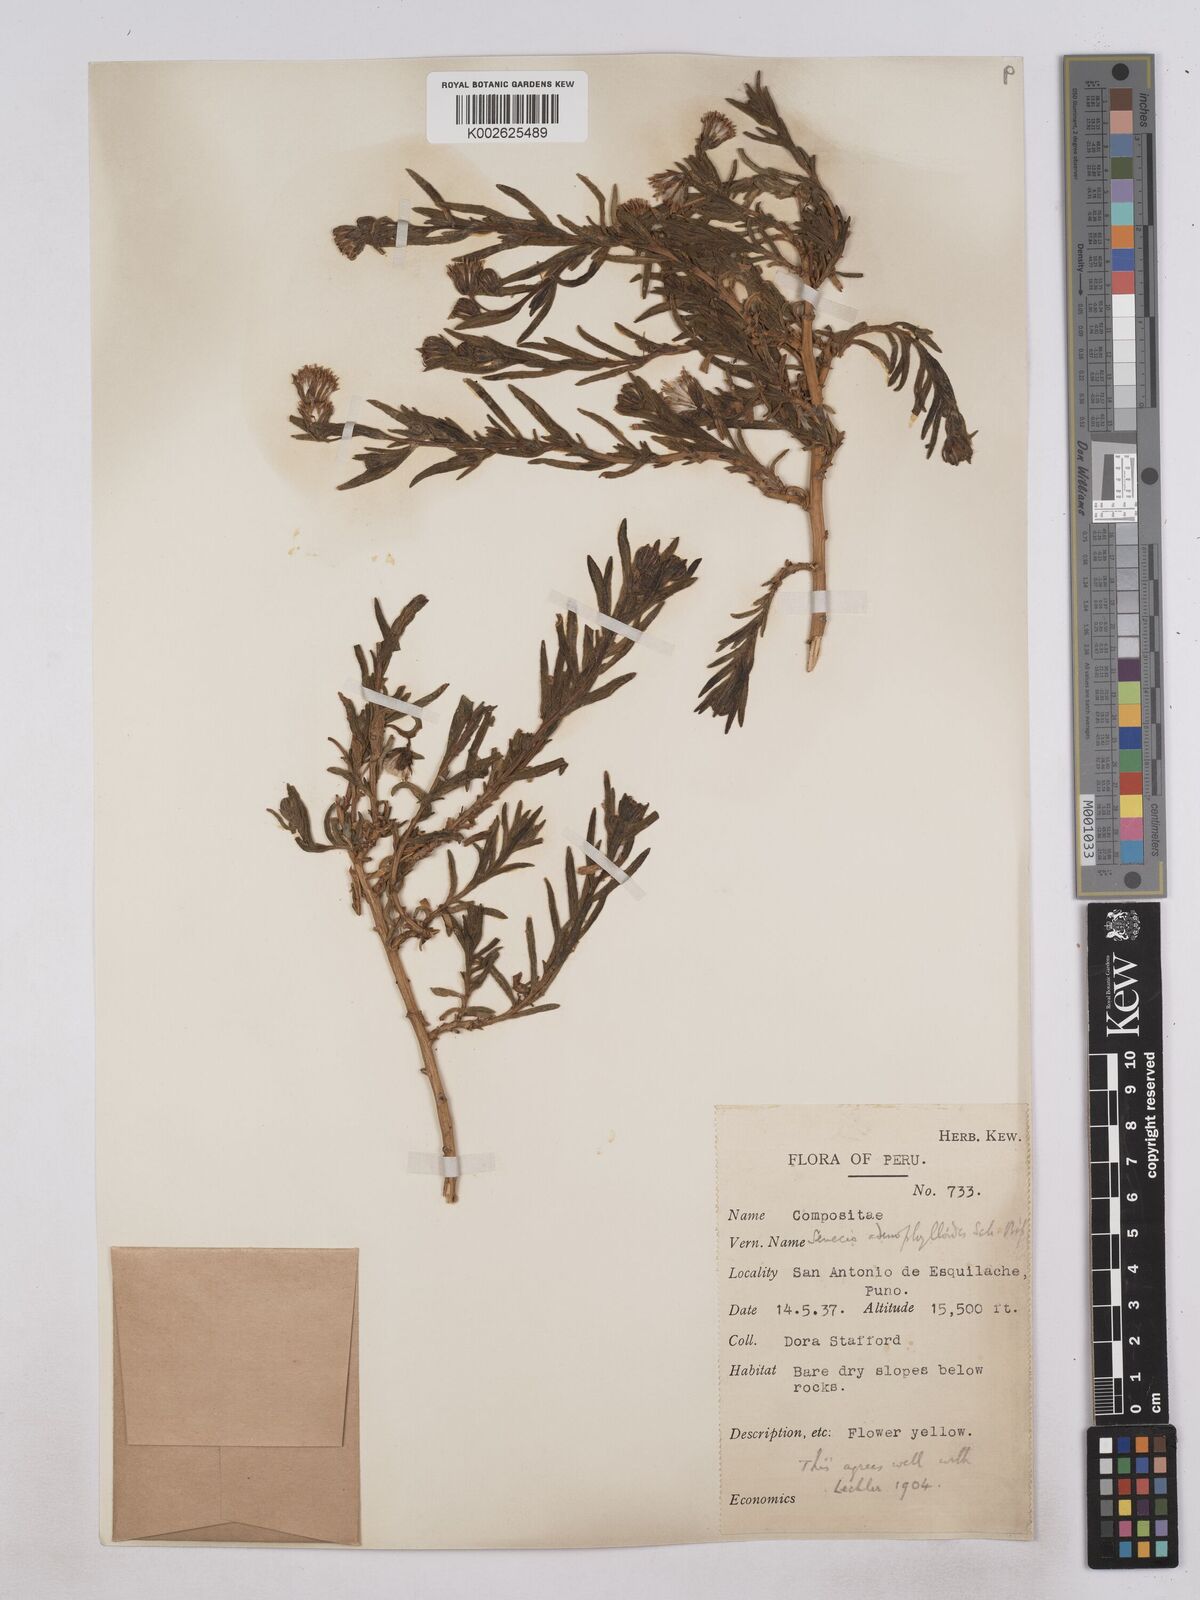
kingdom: Plantae
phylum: Tracheophyta
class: Magnoliopsida
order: Asterales
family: Asteraceae
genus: Senecio
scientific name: Senecio rufescens
